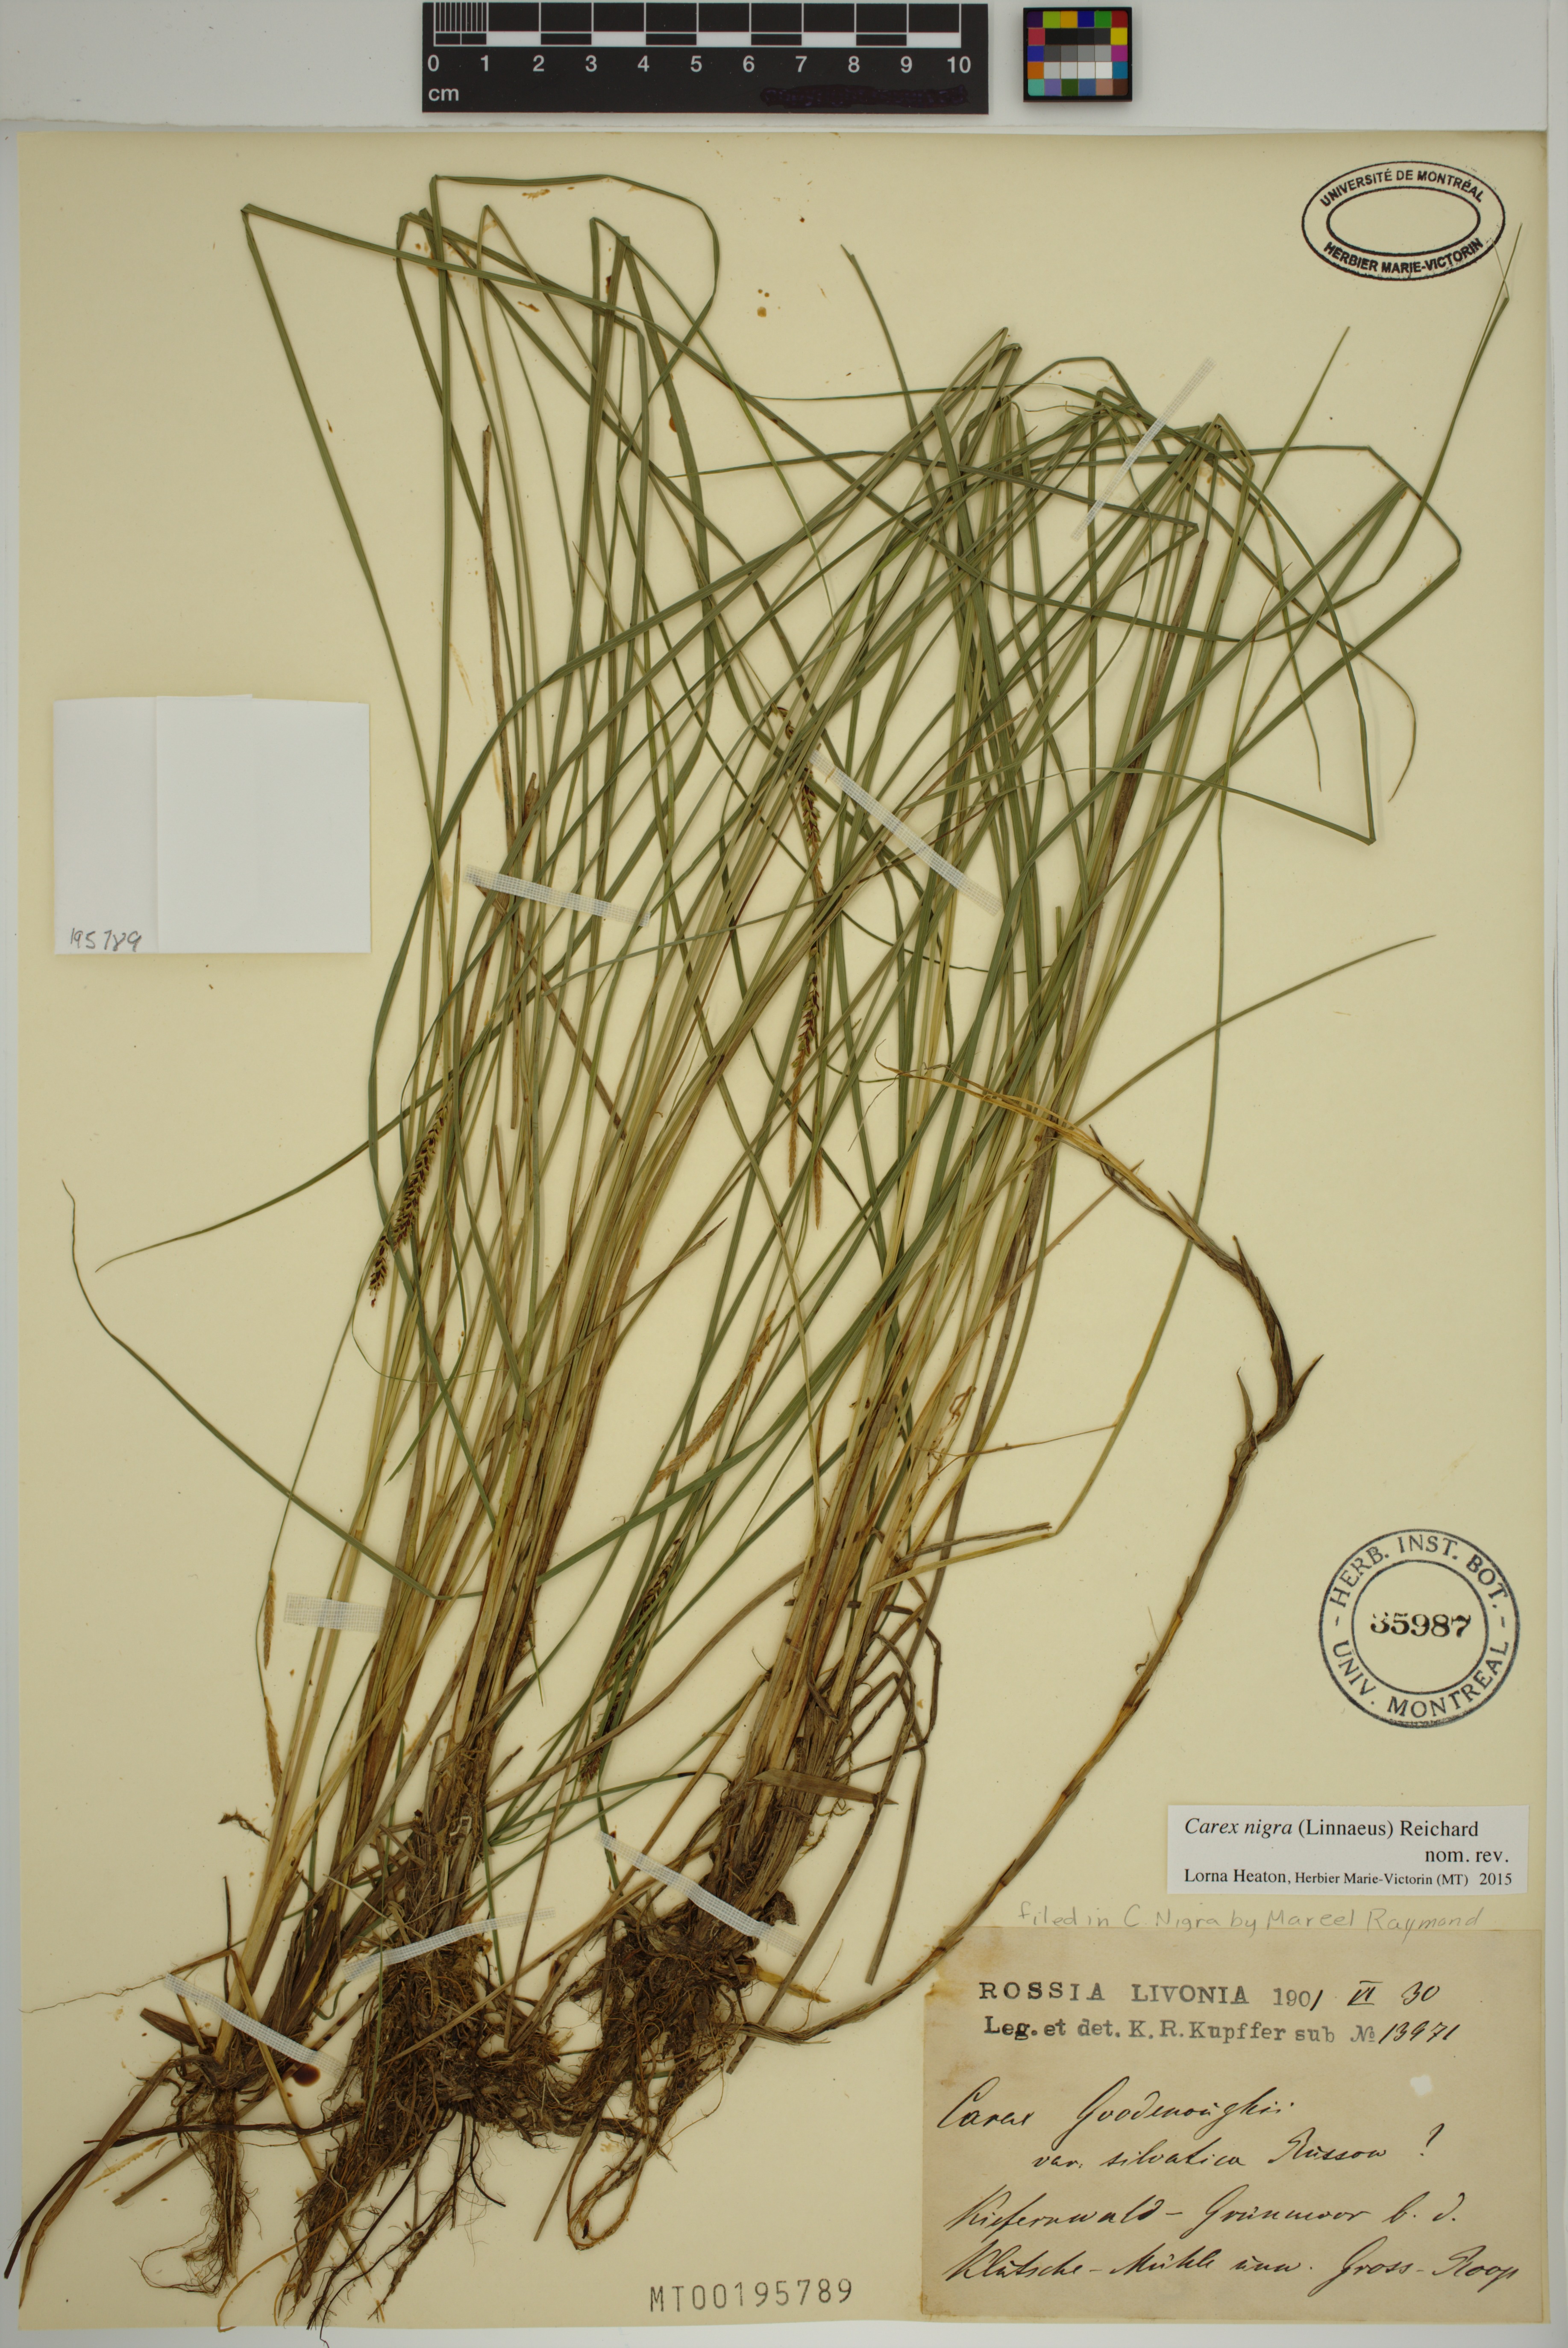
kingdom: Plantae
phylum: Tracheophyta
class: Liliopsida
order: Poales
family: Cyperaceae
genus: Carex
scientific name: Carex nigra
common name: Common sedge
